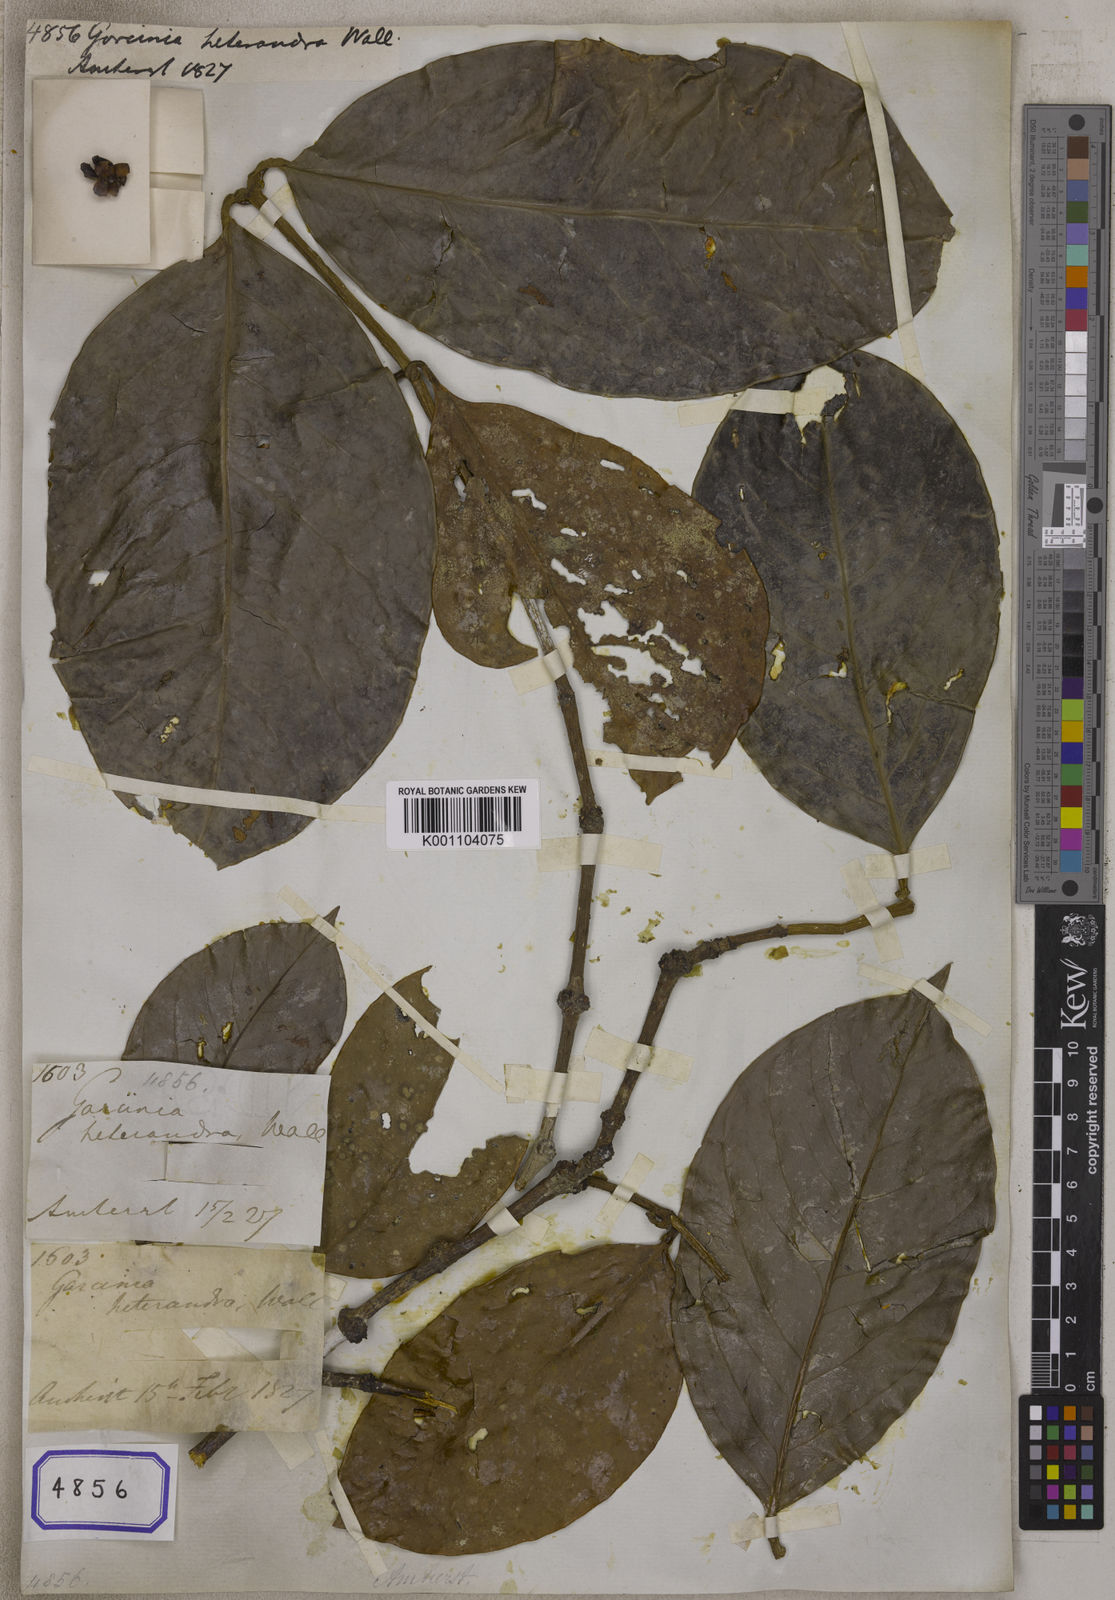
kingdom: Plantae
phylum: Tracheophyta
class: Magnoliopsida
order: Malpighiales
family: Clusiaceae
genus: Garcinia
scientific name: Garcinia
